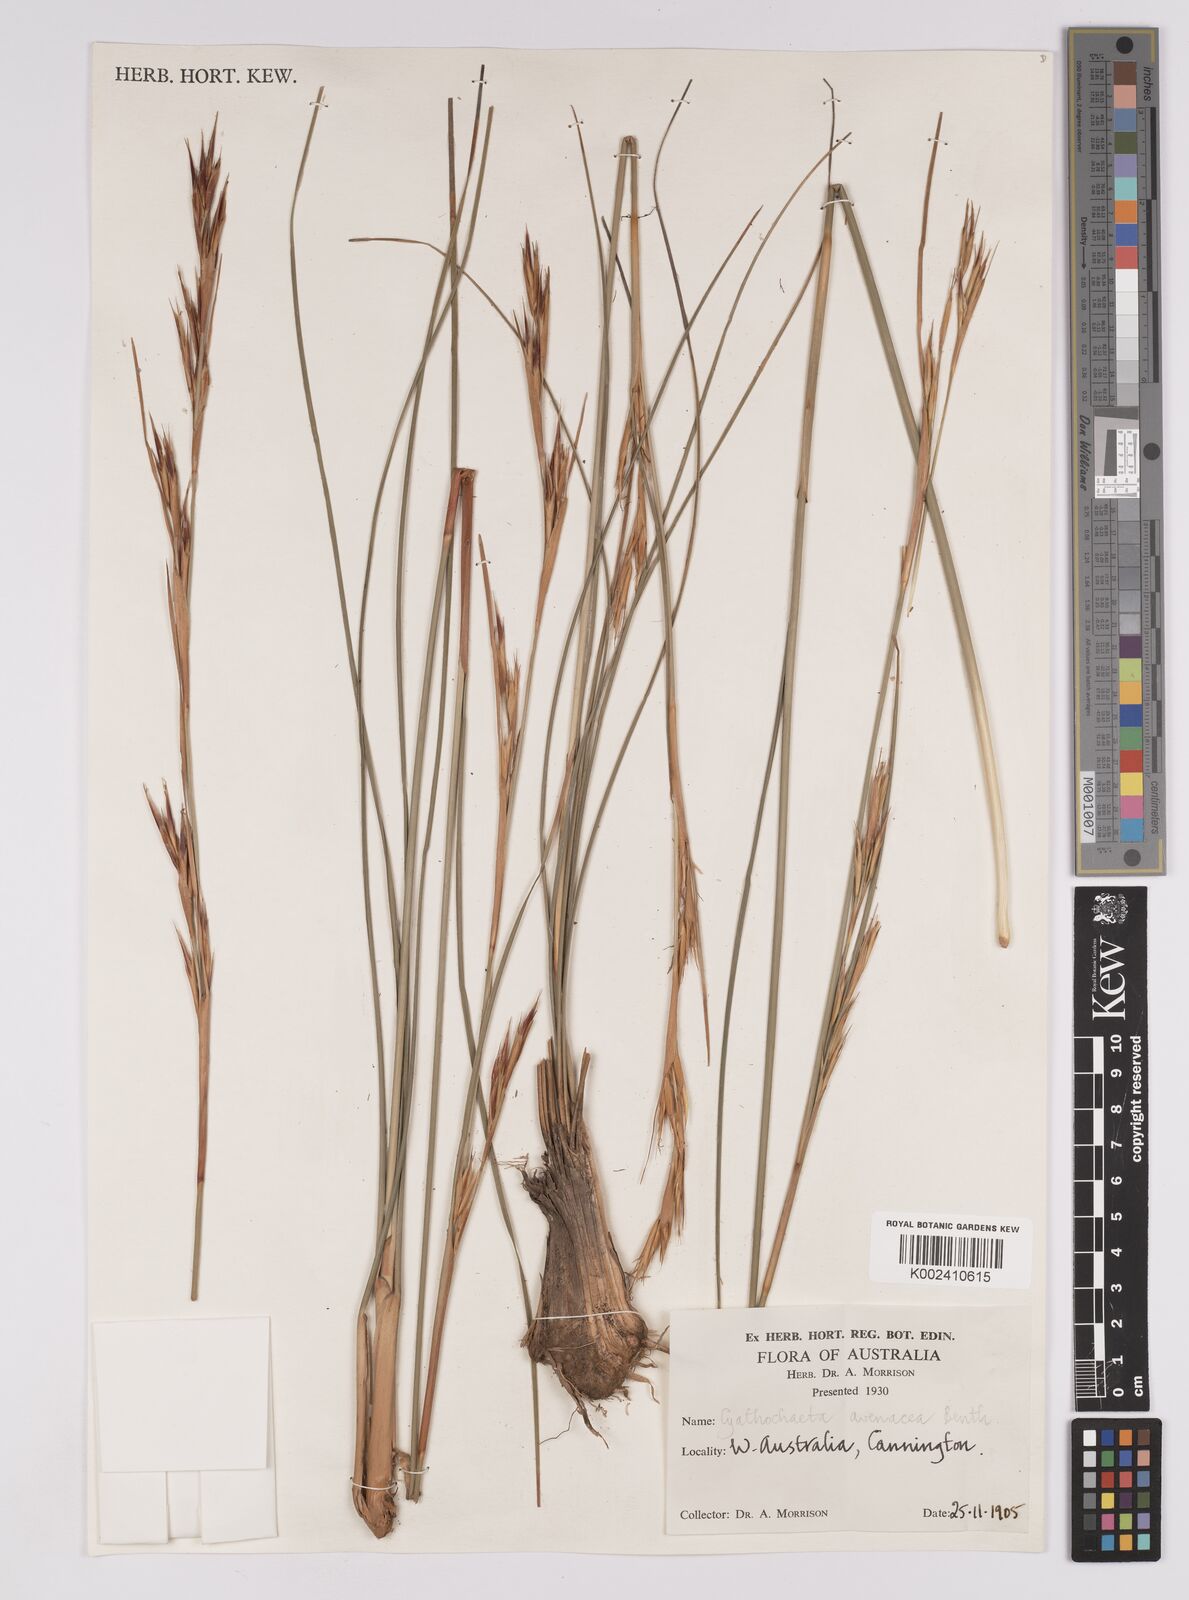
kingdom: Plantae
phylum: Tracheophyta
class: Liliopsida
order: Poales
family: Cyperaceae
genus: Cyathochaeta
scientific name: Cyathochaeta avenacea
